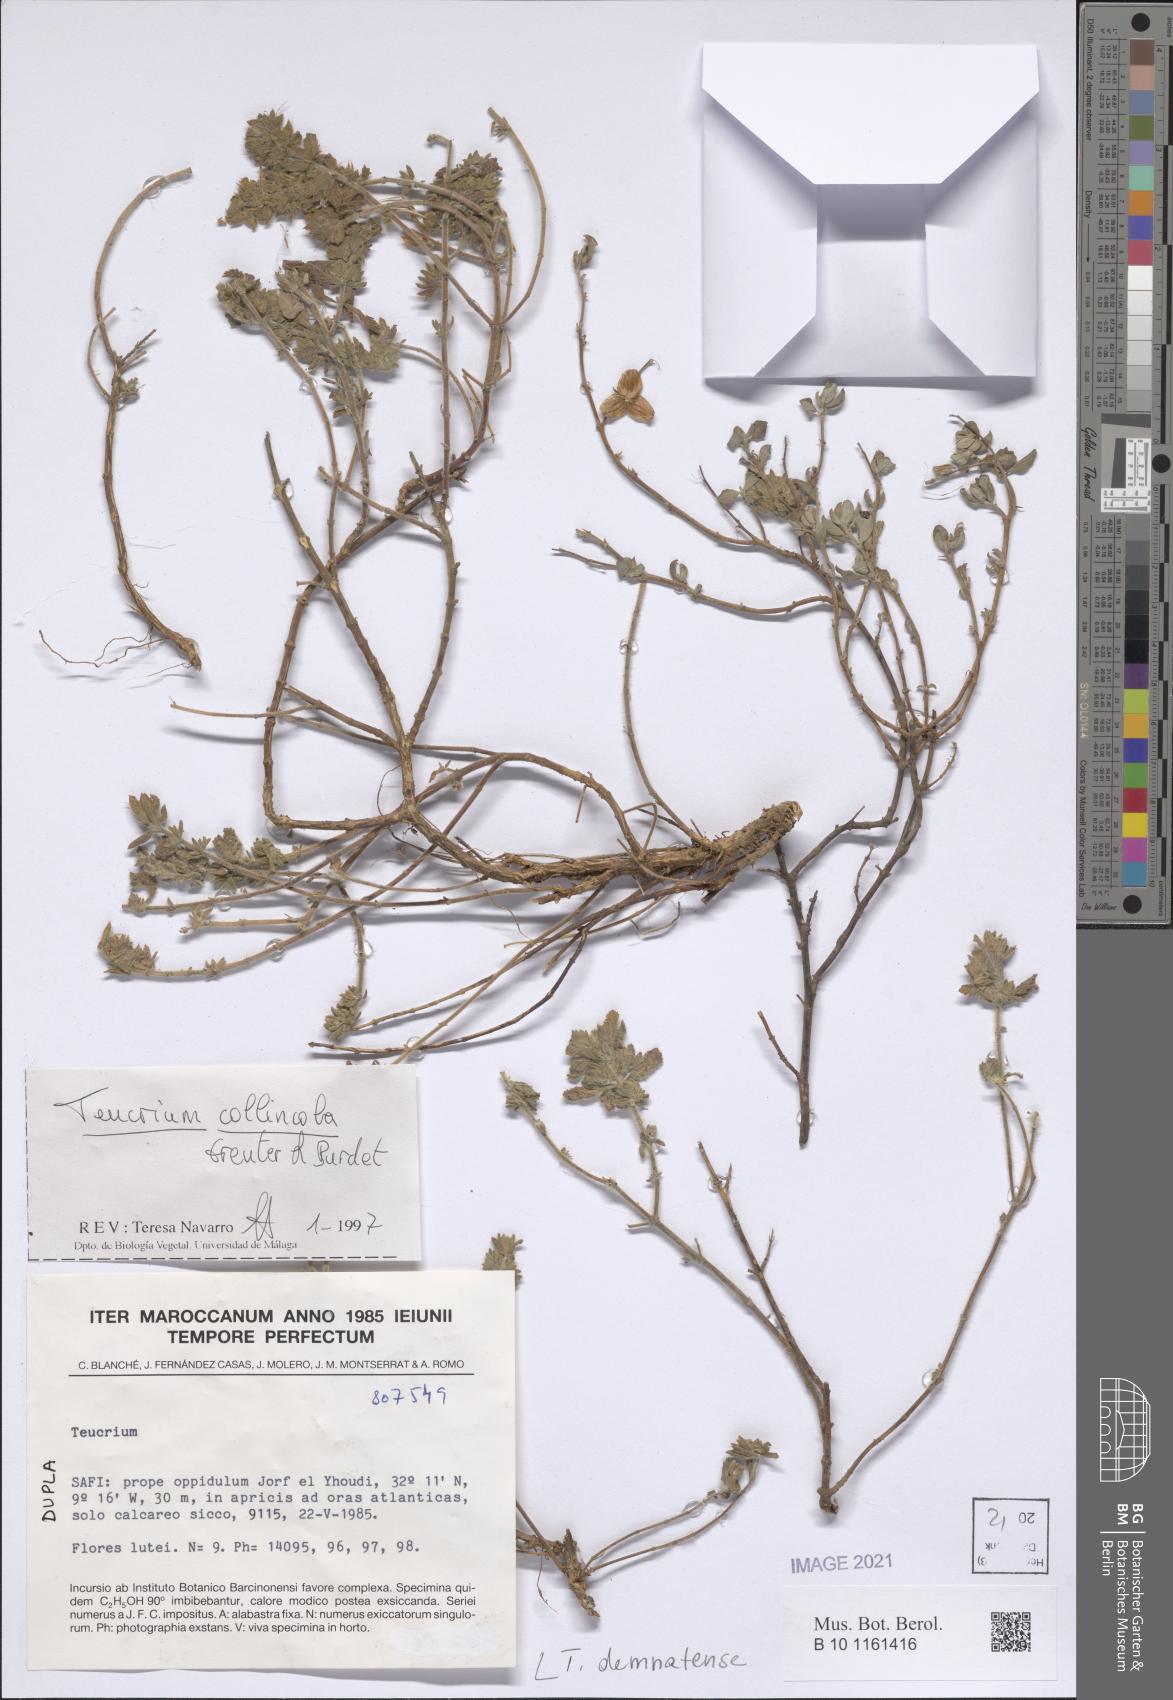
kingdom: Plantae
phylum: Tracheophyta
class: Magnoliopsida
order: Lamiales
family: Lamiaceae
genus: Teucrium
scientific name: Teucrium demnatense
